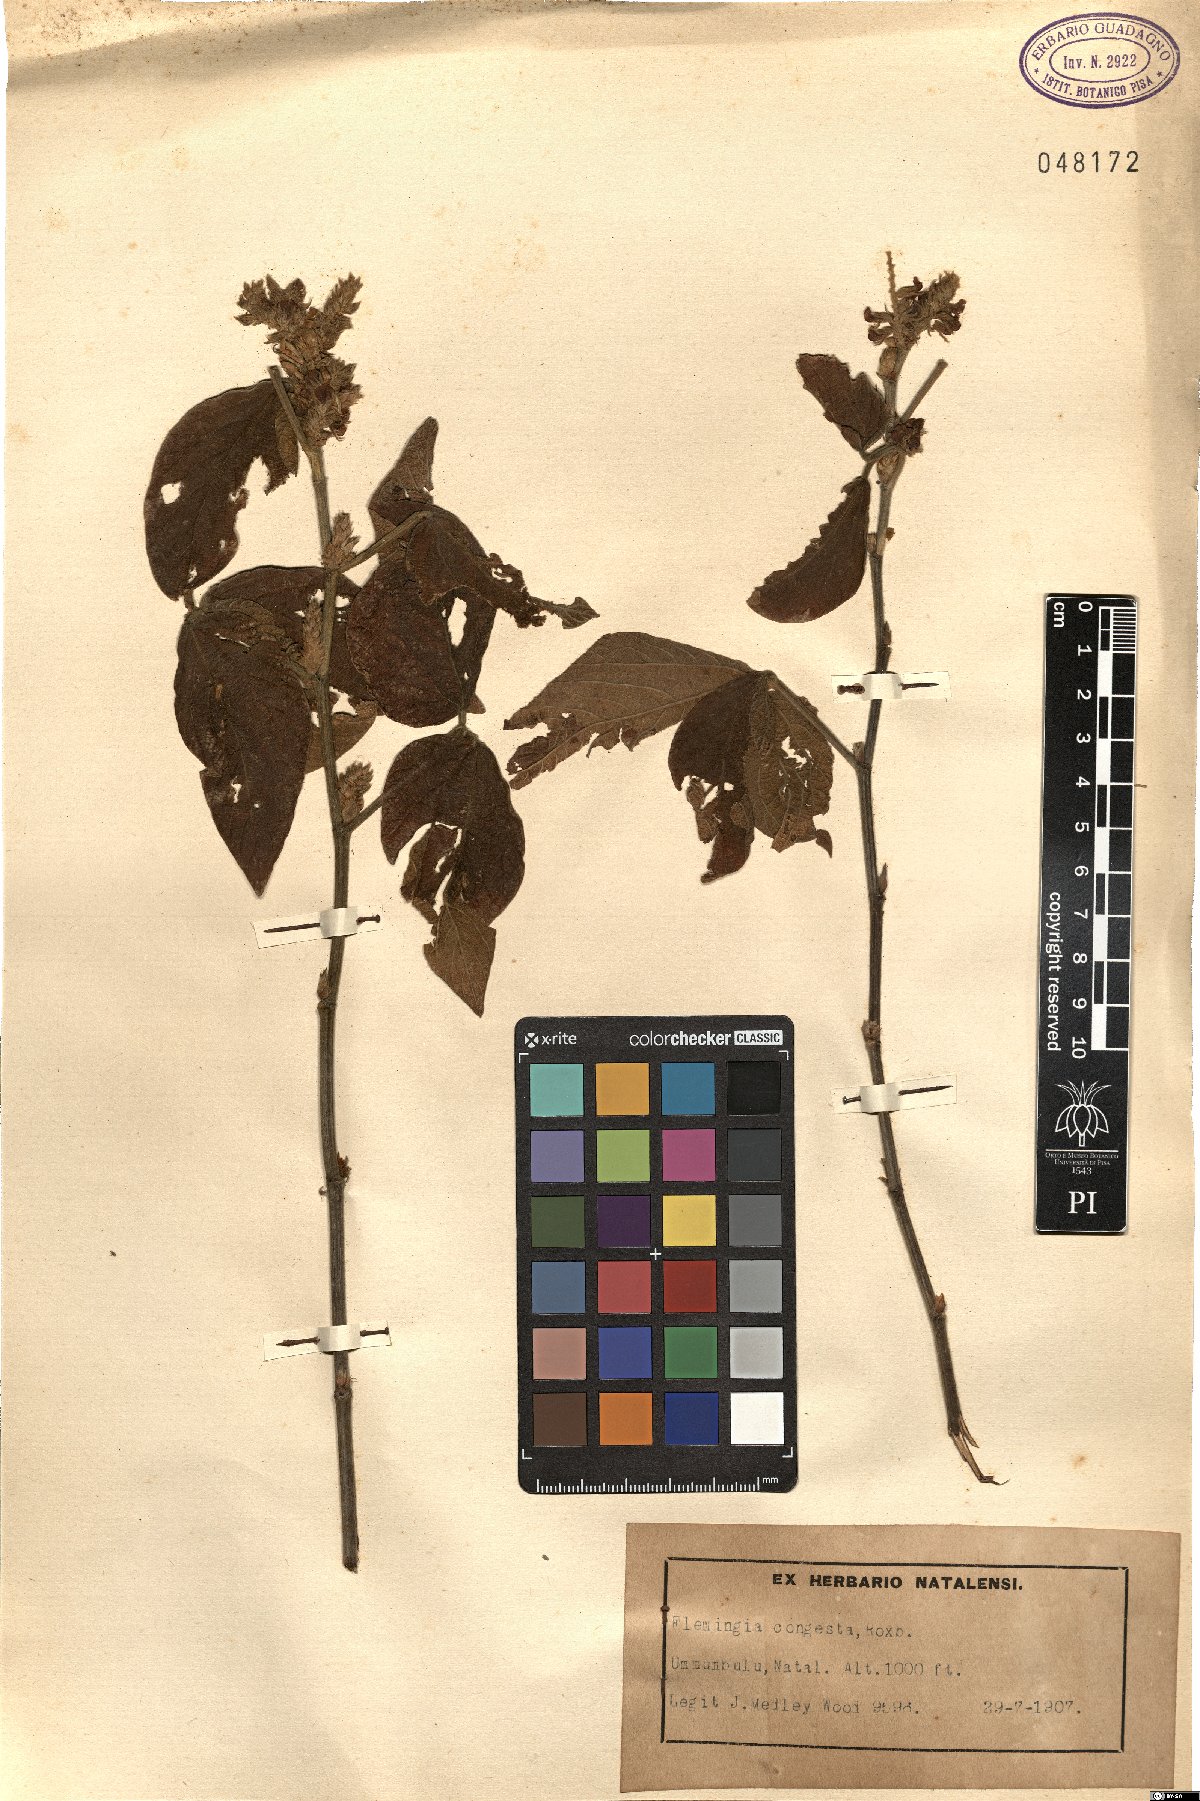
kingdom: Plantae
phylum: Tracheophyta
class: Magnoliopsida
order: Fabales
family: Fabaceae
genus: Flemingia
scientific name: Flemingia macrophylla
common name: Flemingia
